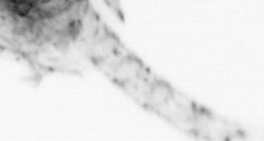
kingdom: Animalia
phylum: Arthropoda
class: Copepoda
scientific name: Copepoda
